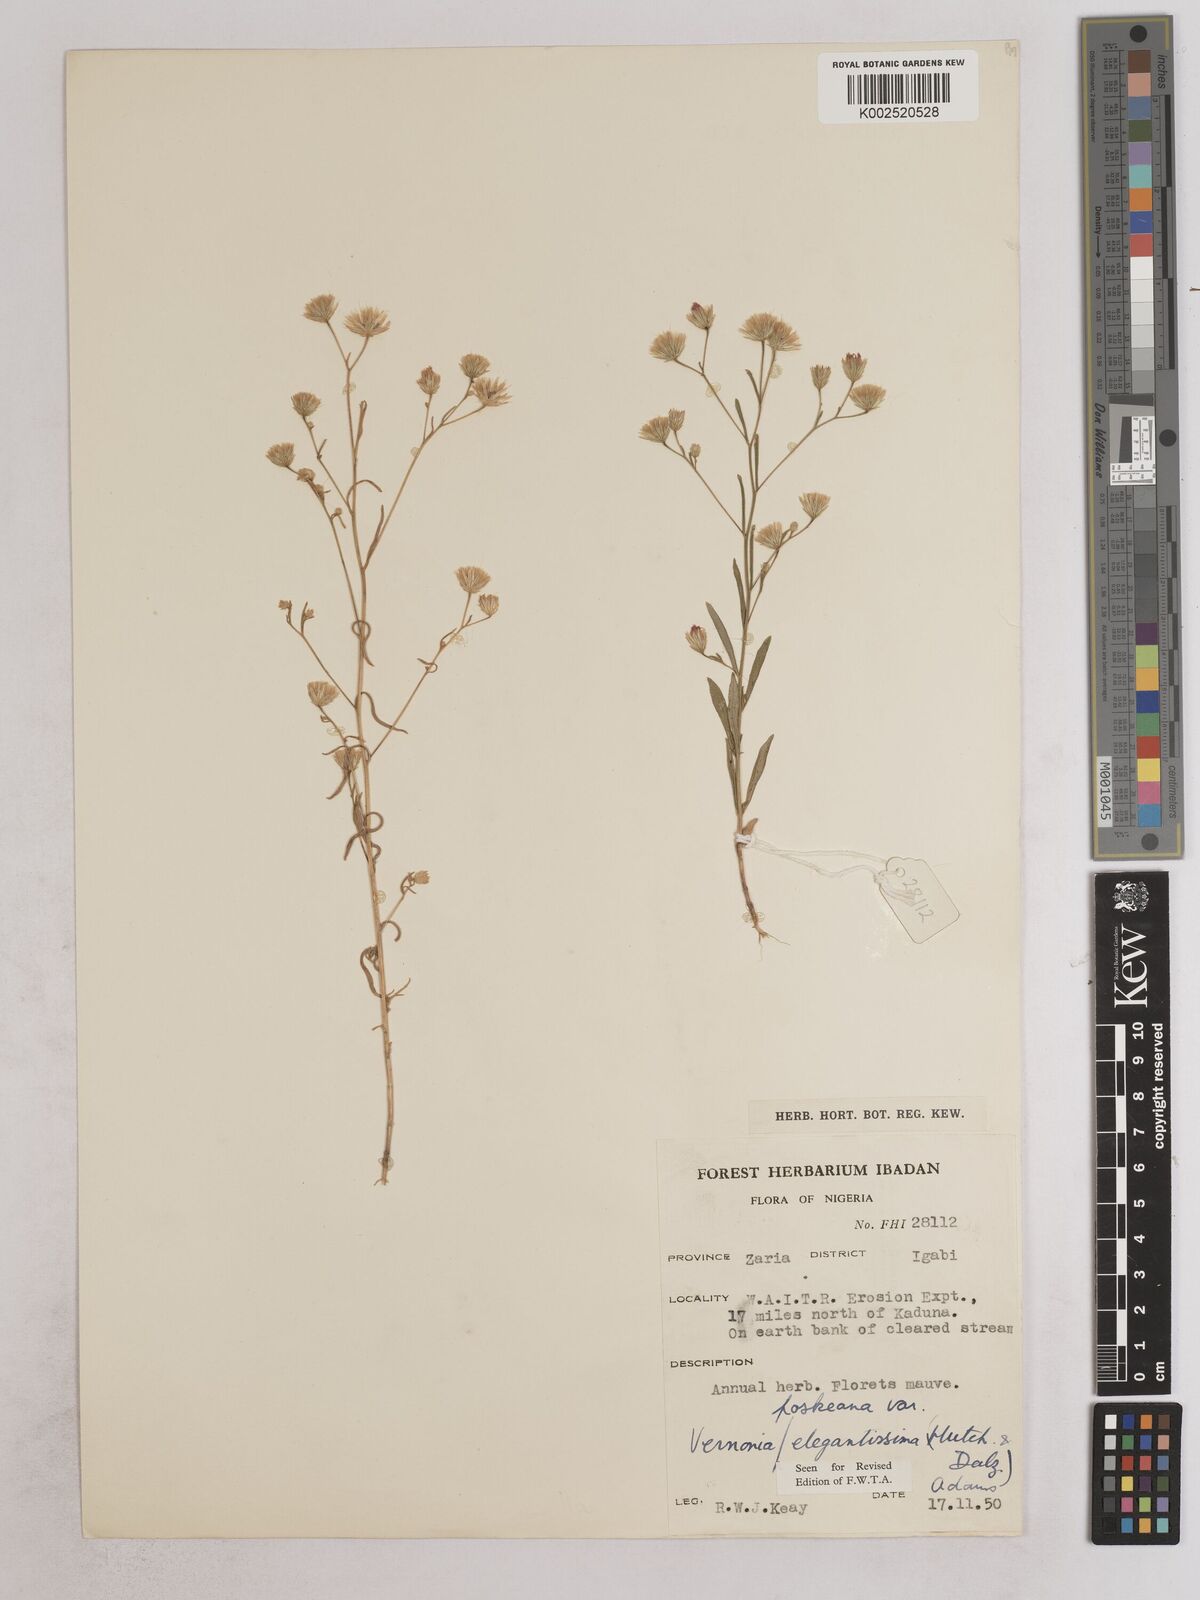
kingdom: Plantae
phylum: Tracheophyta
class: Magnoliopsida
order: Asterales
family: Asteraceae
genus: Crystallopollen
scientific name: Crystallopollen angustifolium
